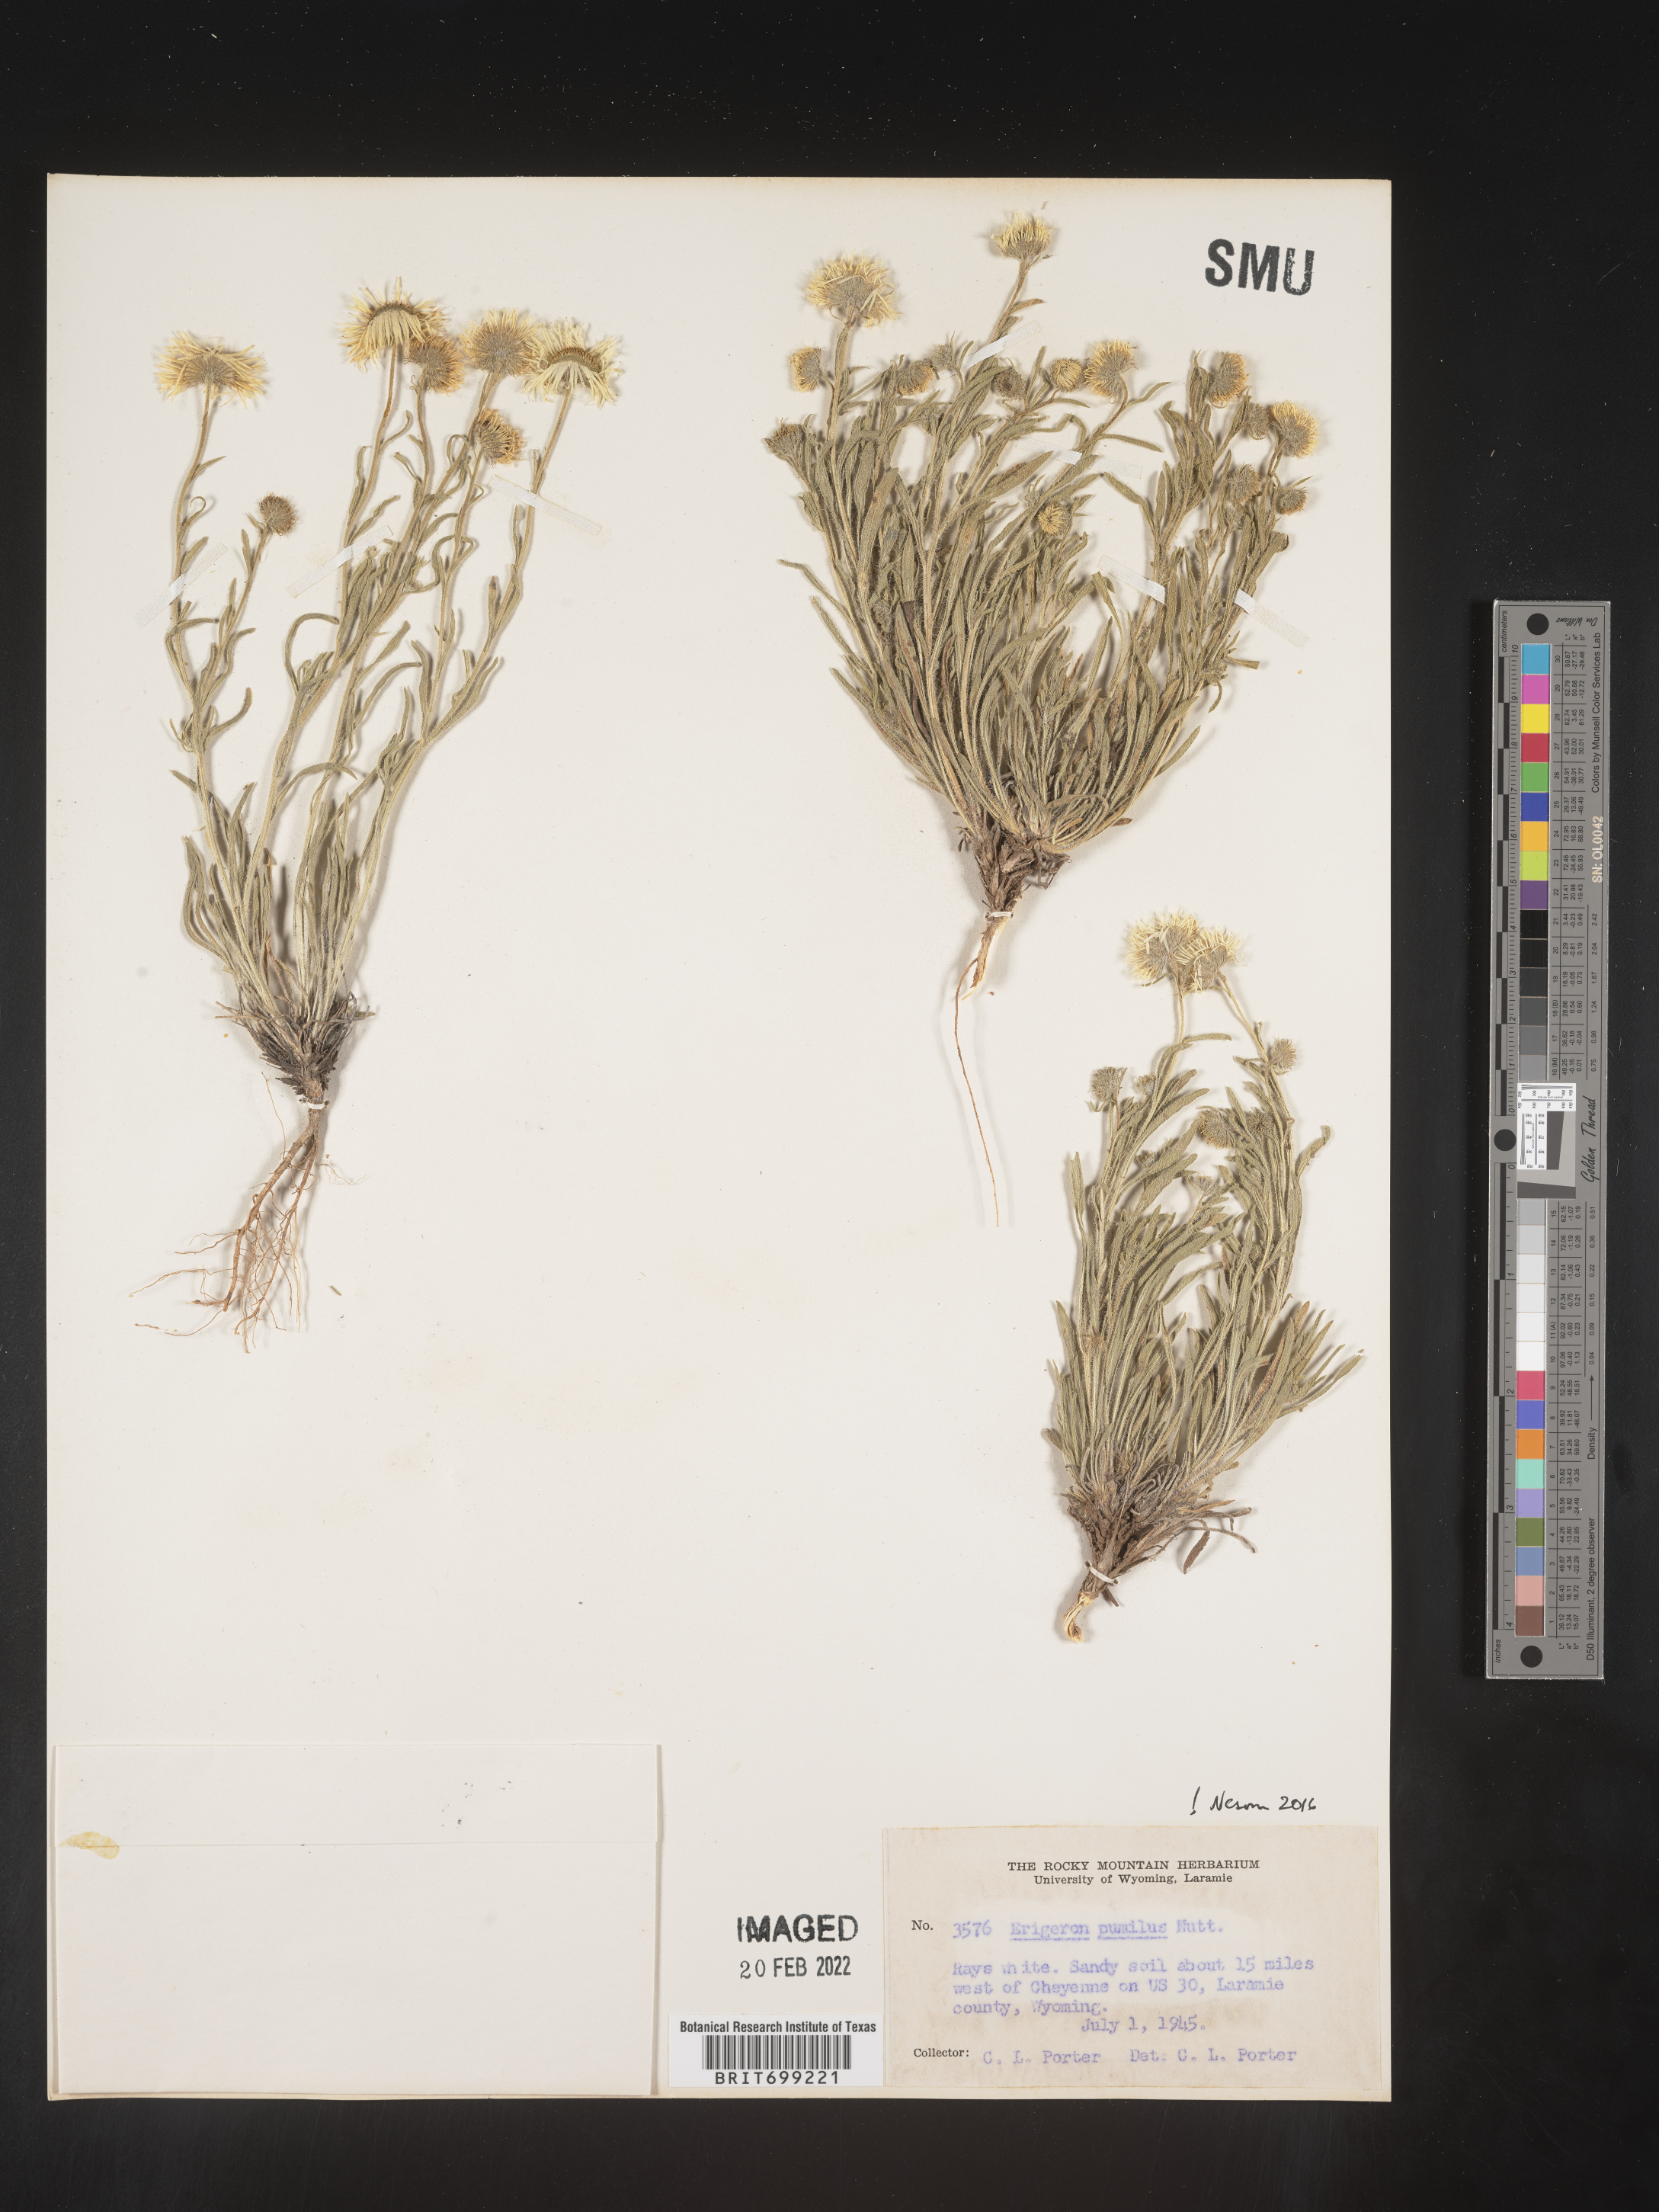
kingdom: Plantae
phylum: Tracheophyta
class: Magnoliopsida
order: Asterales
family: Asteraceae
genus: Erigeron
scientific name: Erigeron pumilus
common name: Shaggy fleabane
